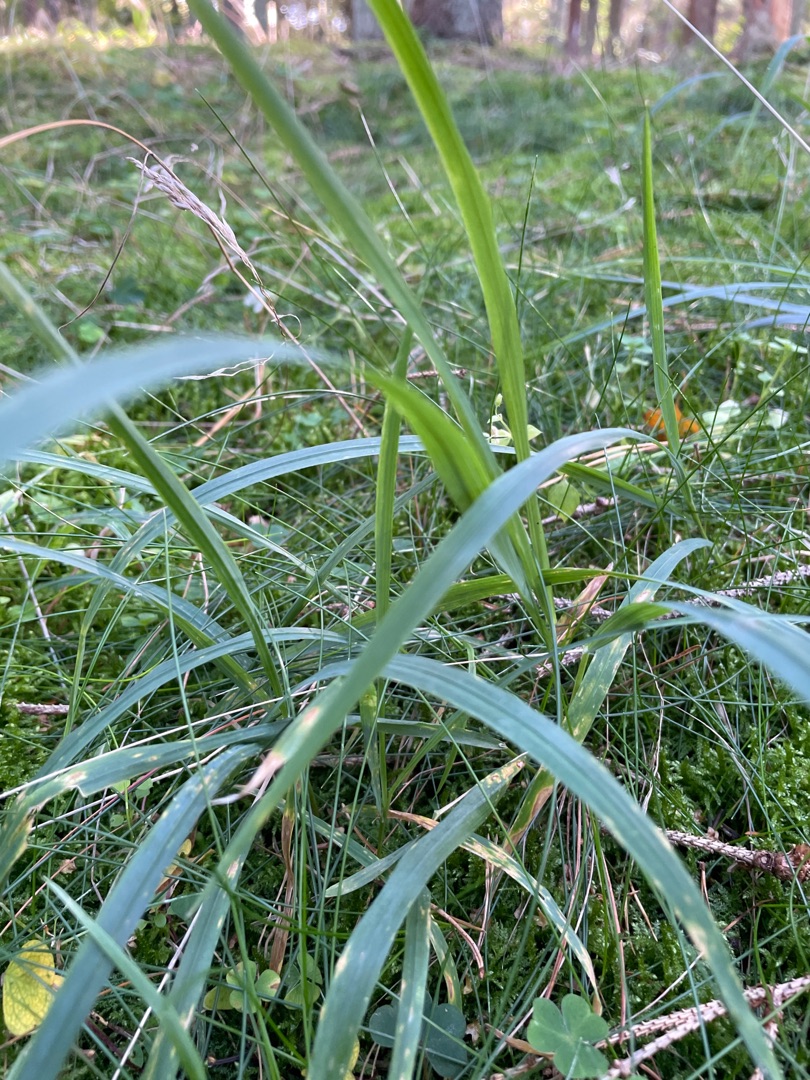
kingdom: Plantae
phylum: Tracheophyta
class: Liliopsida
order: Poales
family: Poaceae
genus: Milium
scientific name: Milium effusum
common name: Miliegræs
